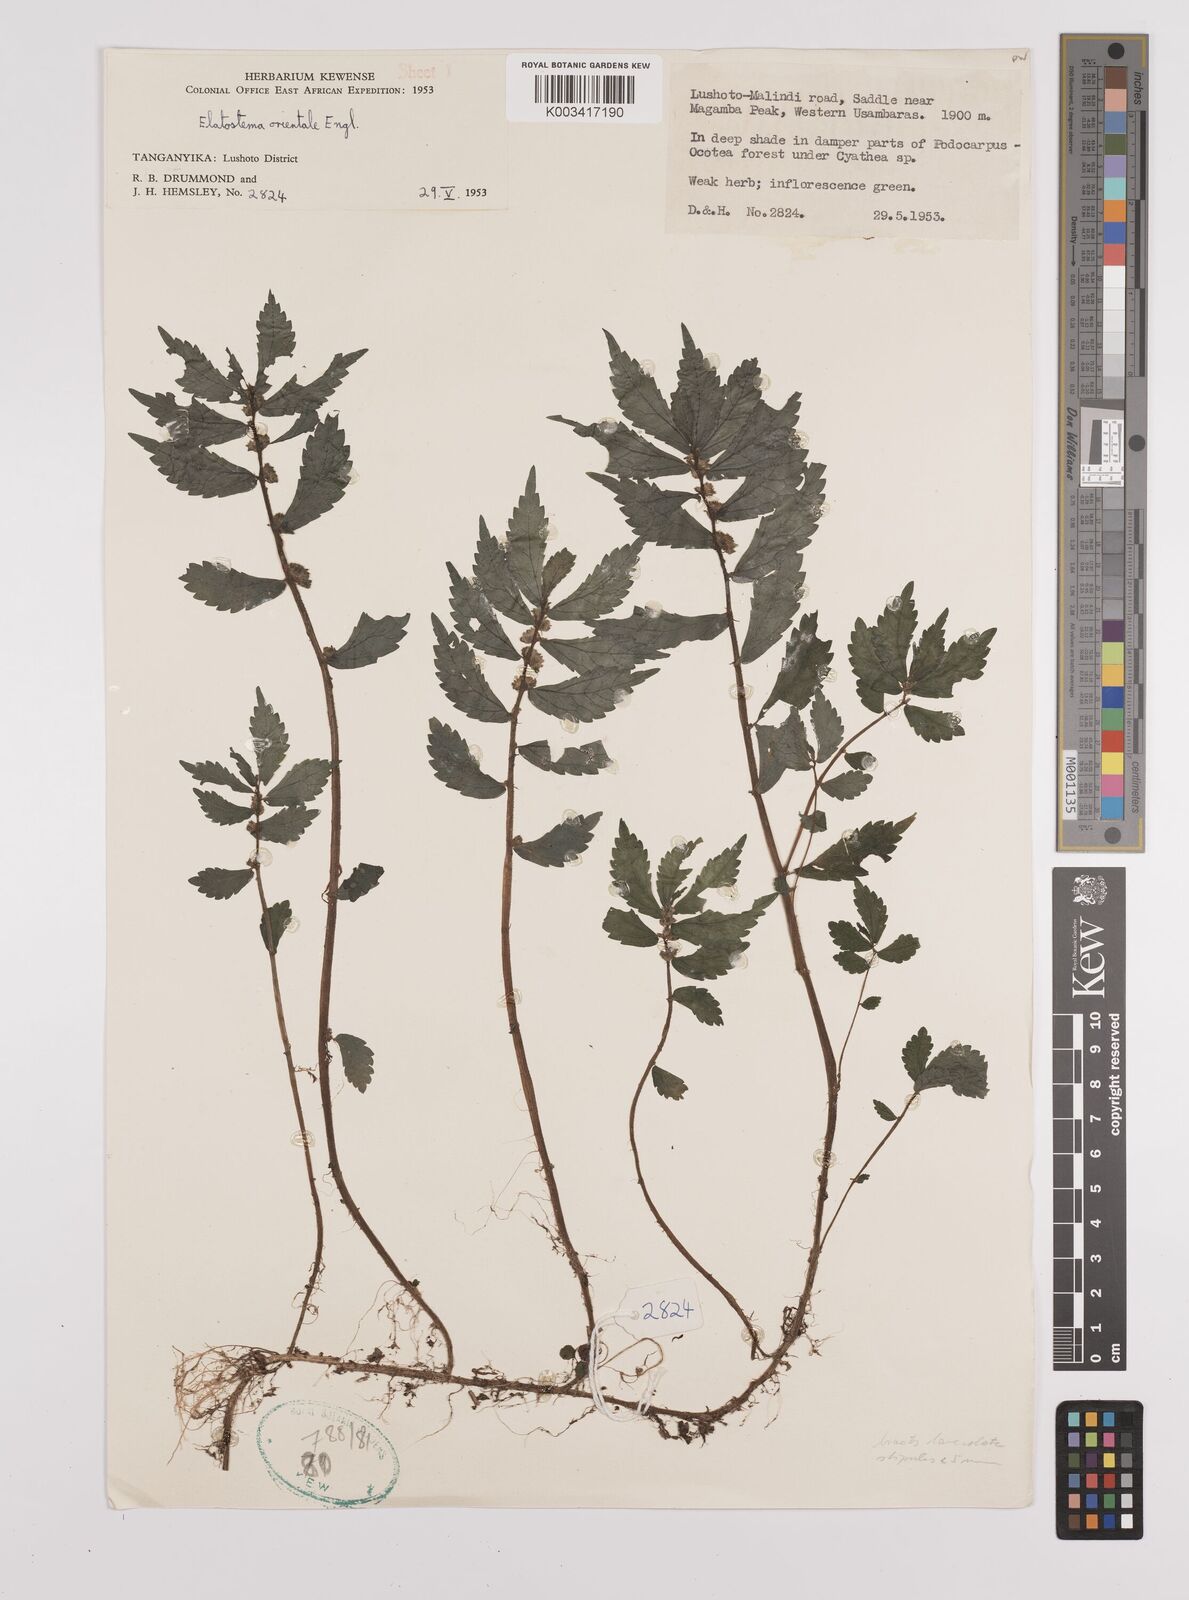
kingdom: Plantae
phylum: Tracheophyta
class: Magnoliopsida
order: Rosales
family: Urticaceae
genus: Elatostema
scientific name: Elatostema monticola
